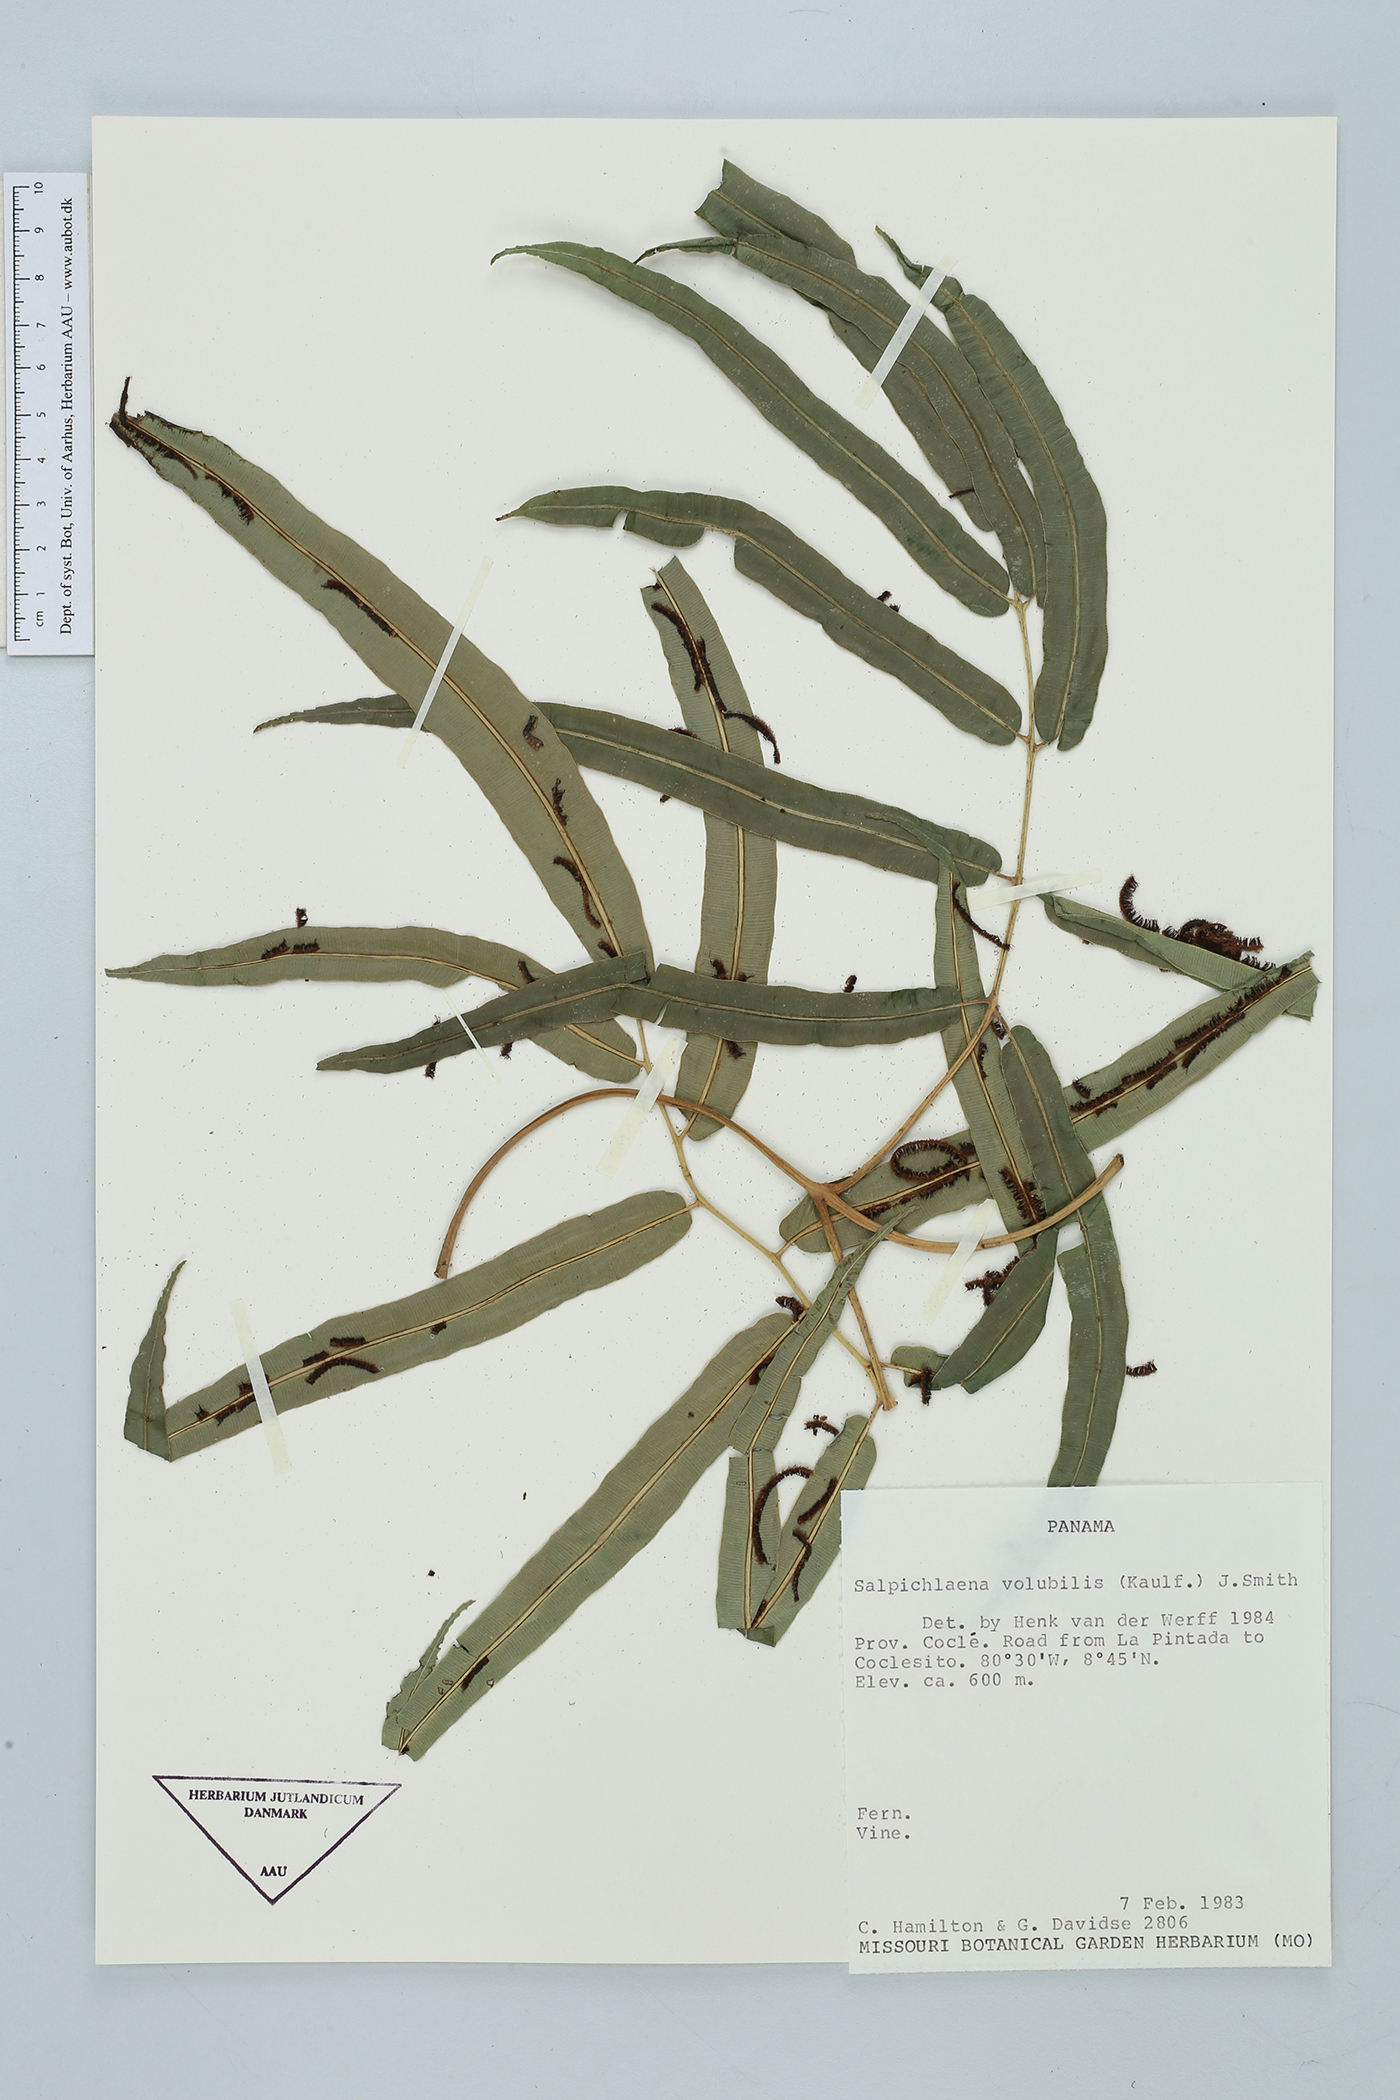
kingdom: Plantae
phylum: Tracheophyta
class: Polypodiopsida
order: Polypodiales
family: Blechnaceae
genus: Salpichlaena
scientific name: Salpichlaena papyrus
